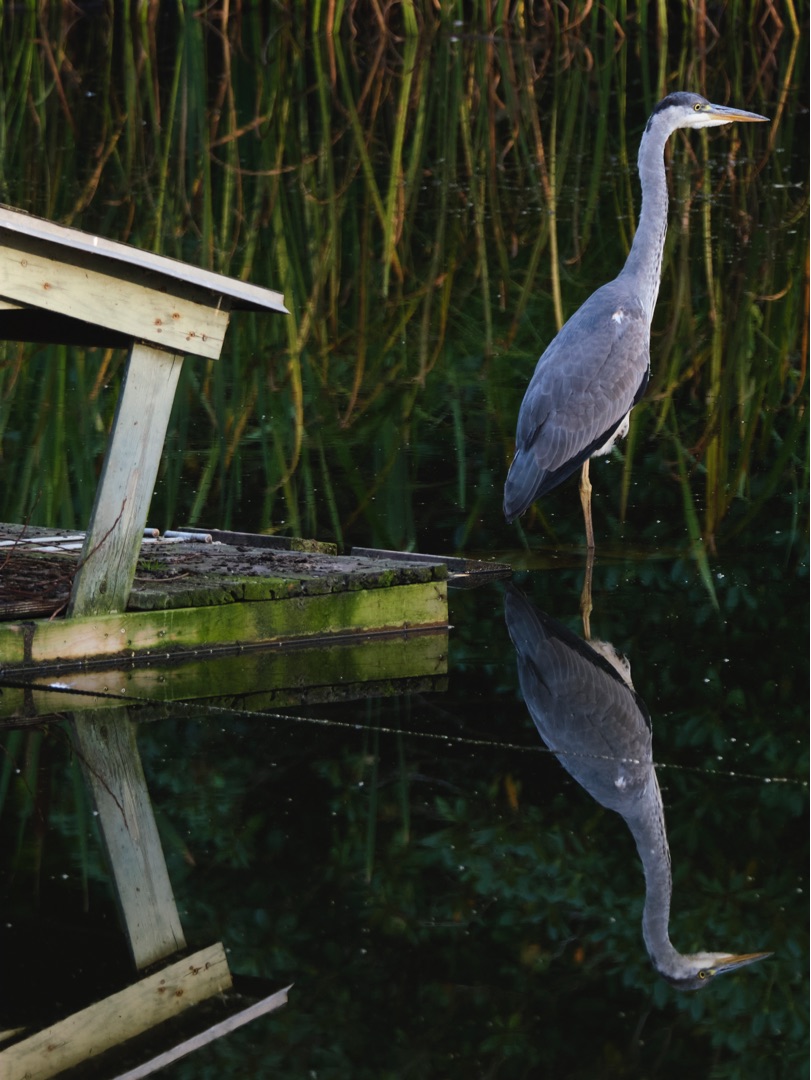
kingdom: Animalia
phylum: Chordata
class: Aves
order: Pelecaniformes
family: Ardeidae
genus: Ardea
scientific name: Ardea cinerea
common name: Fiskehejre
